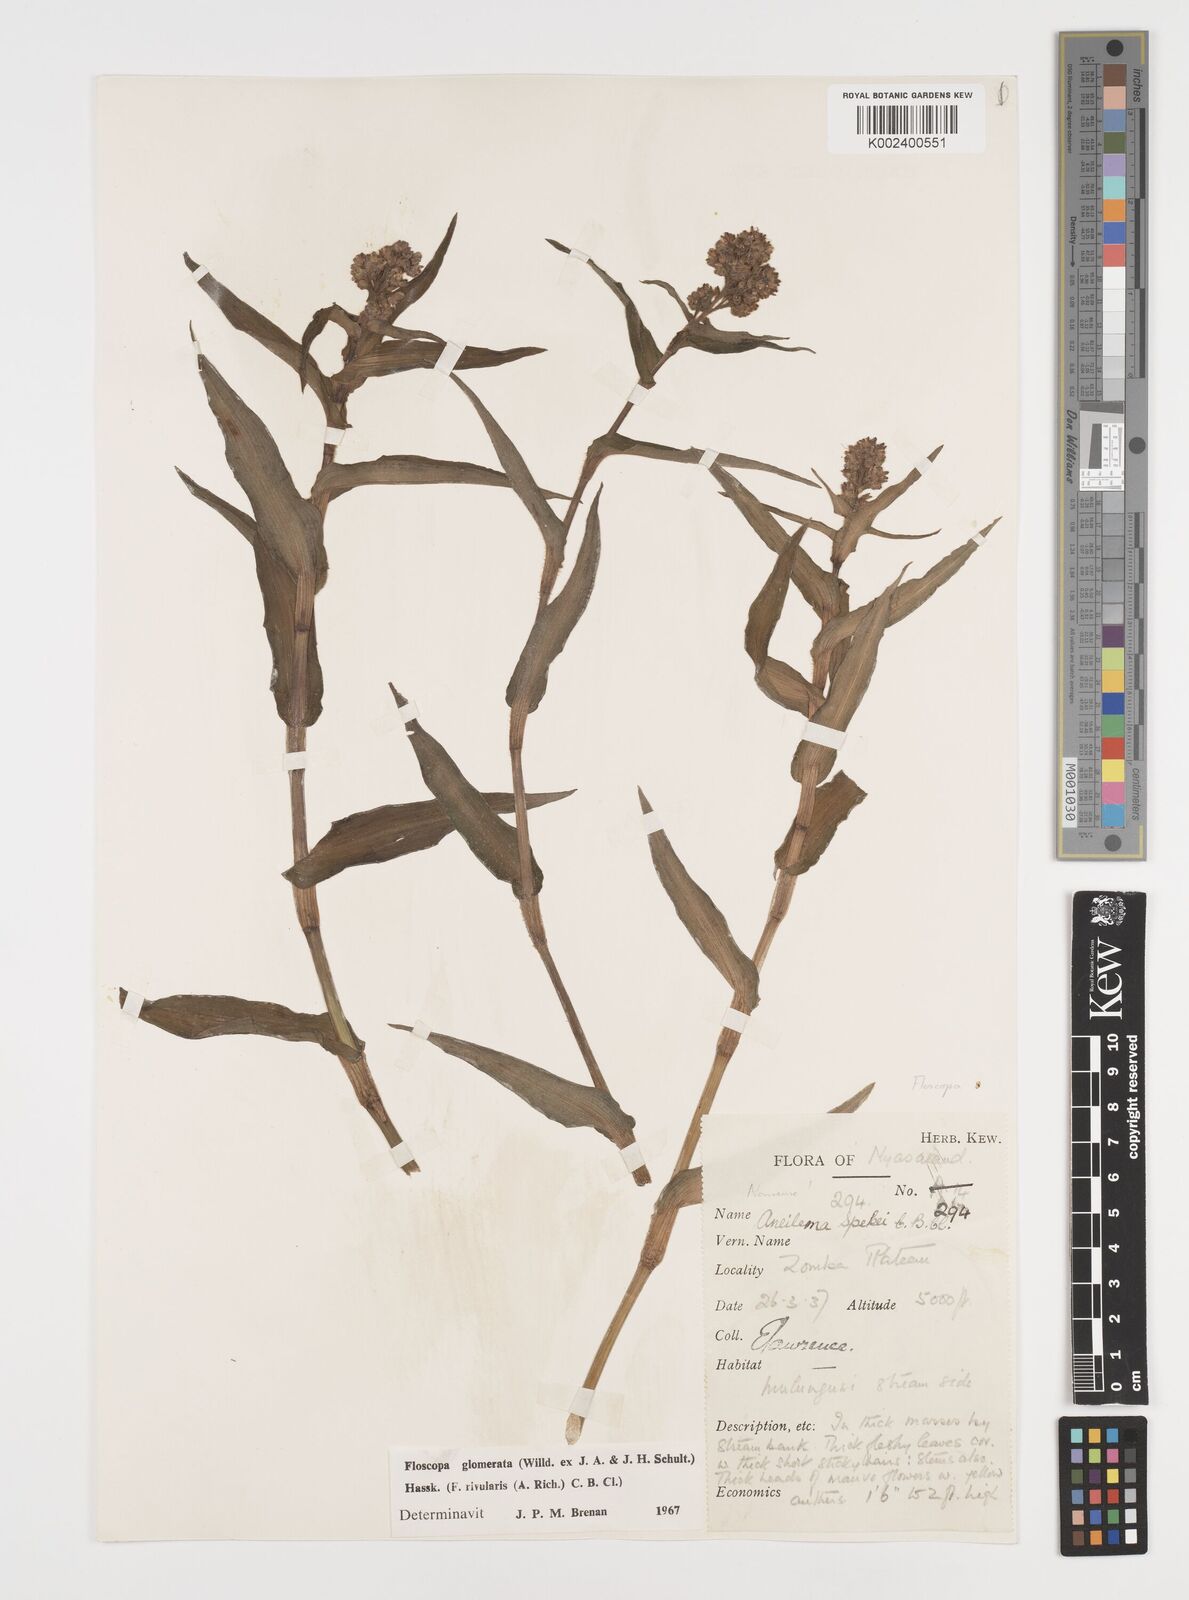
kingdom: Plantae
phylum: Tracheophyta
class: Liliopsida
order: Commelinales
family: Commelinaceae
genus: Floscopa
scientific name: Floscopa glomerata
